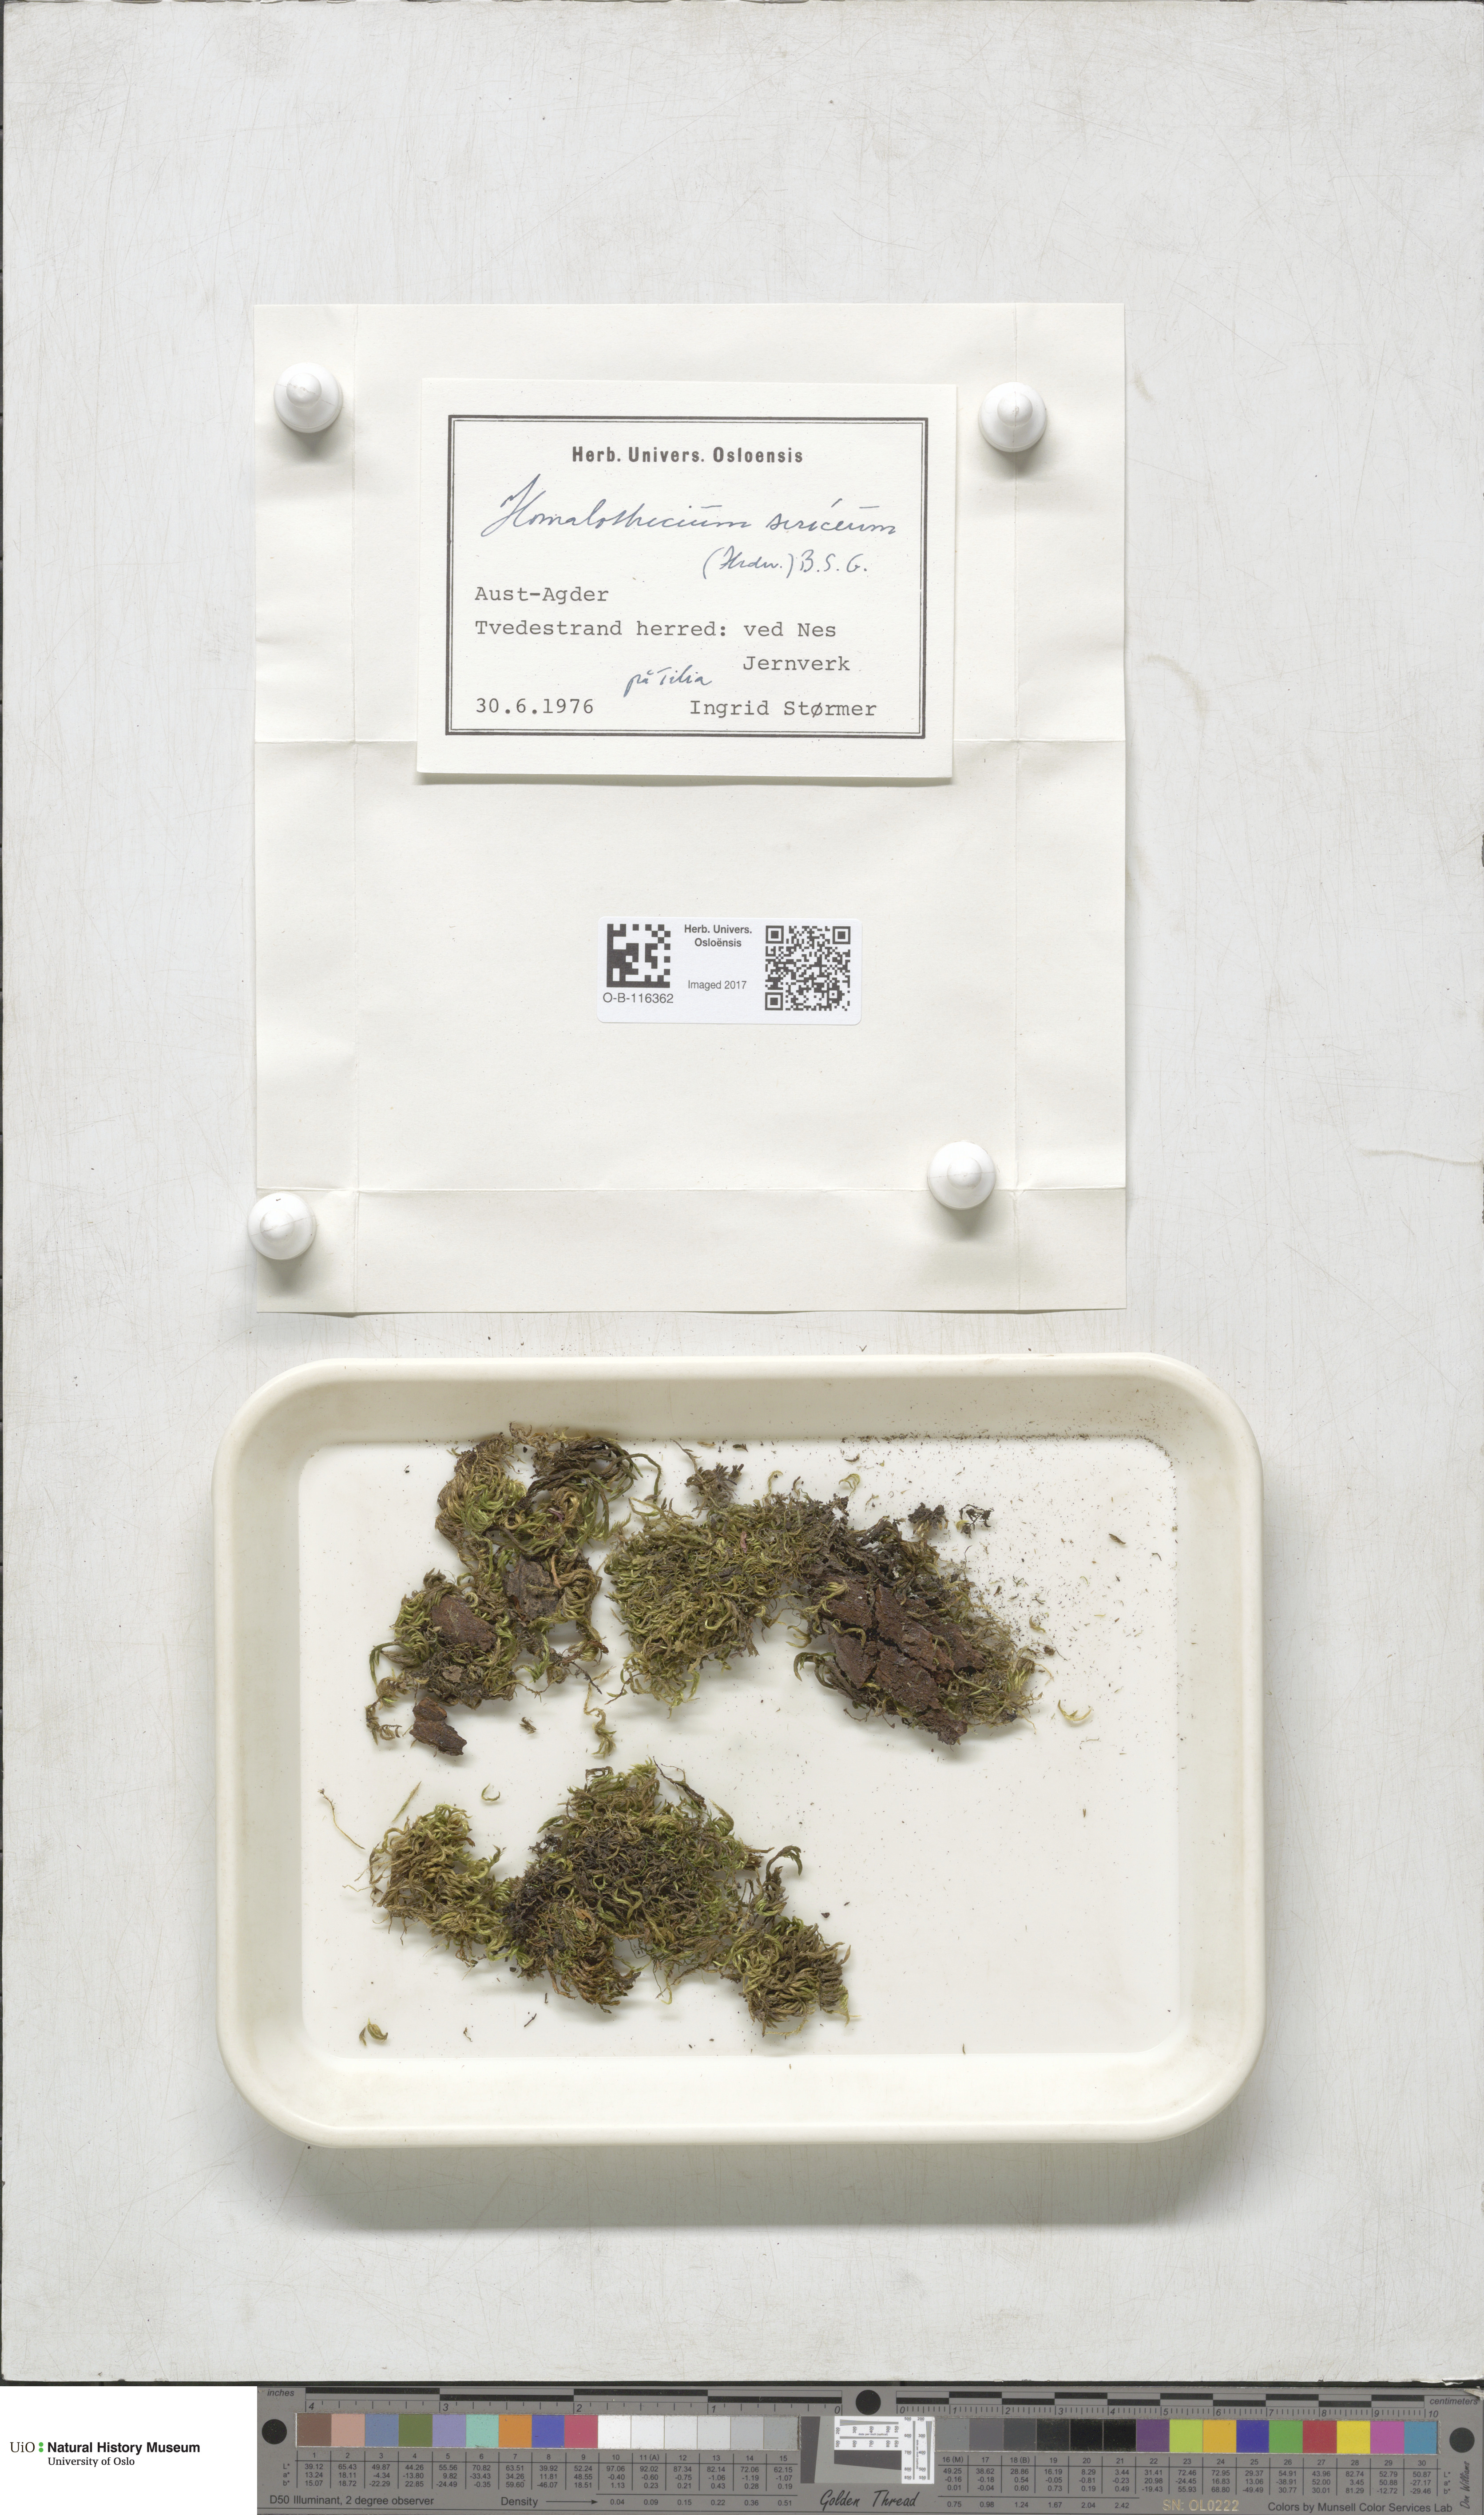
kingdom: Plantae
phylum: Bryophyta
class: Bryopsida
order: Hypnales
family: Brachytheciaceae
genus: Homalothecium
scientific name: Homalothecium sericeum
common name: Silky wall feather-moss
